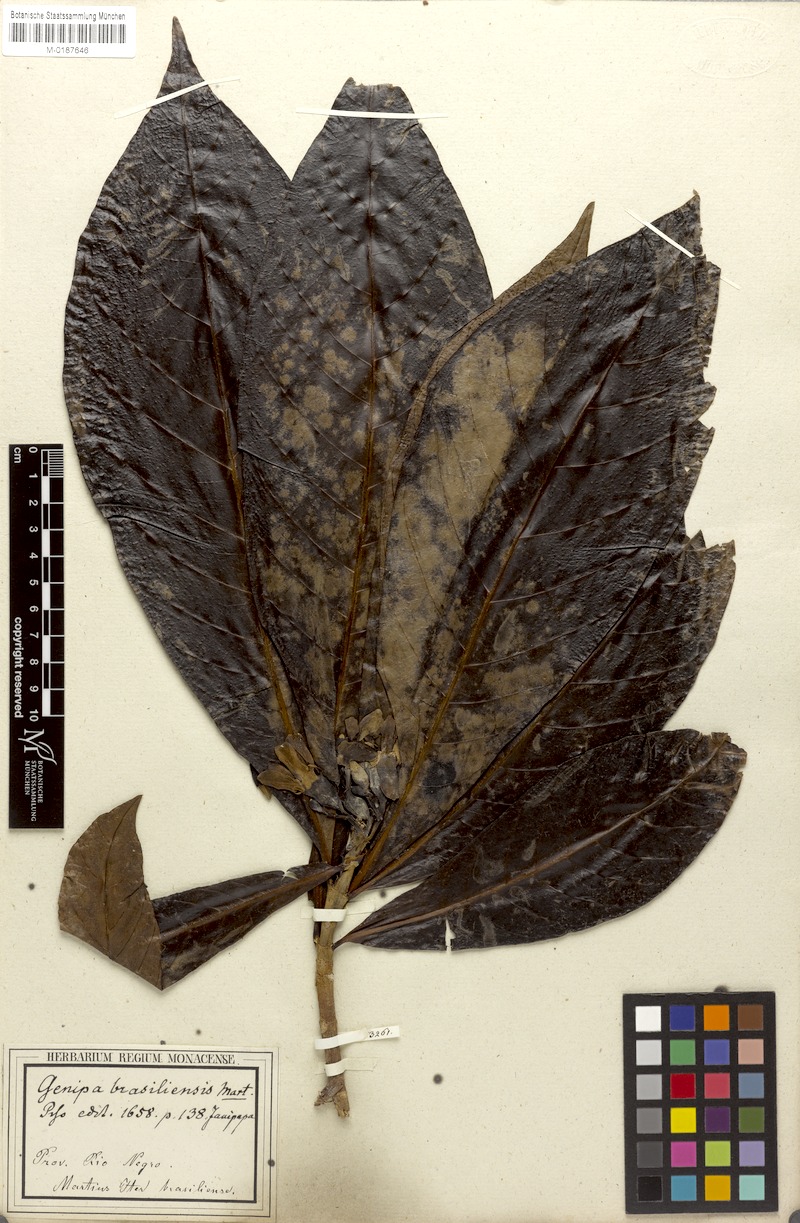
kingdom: Plantae
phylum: Tracheophyta
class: Magnoliopsida
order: Gentianales
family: Rubiaceae
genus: Genipa
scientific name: Genipa americana
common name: Genipap
